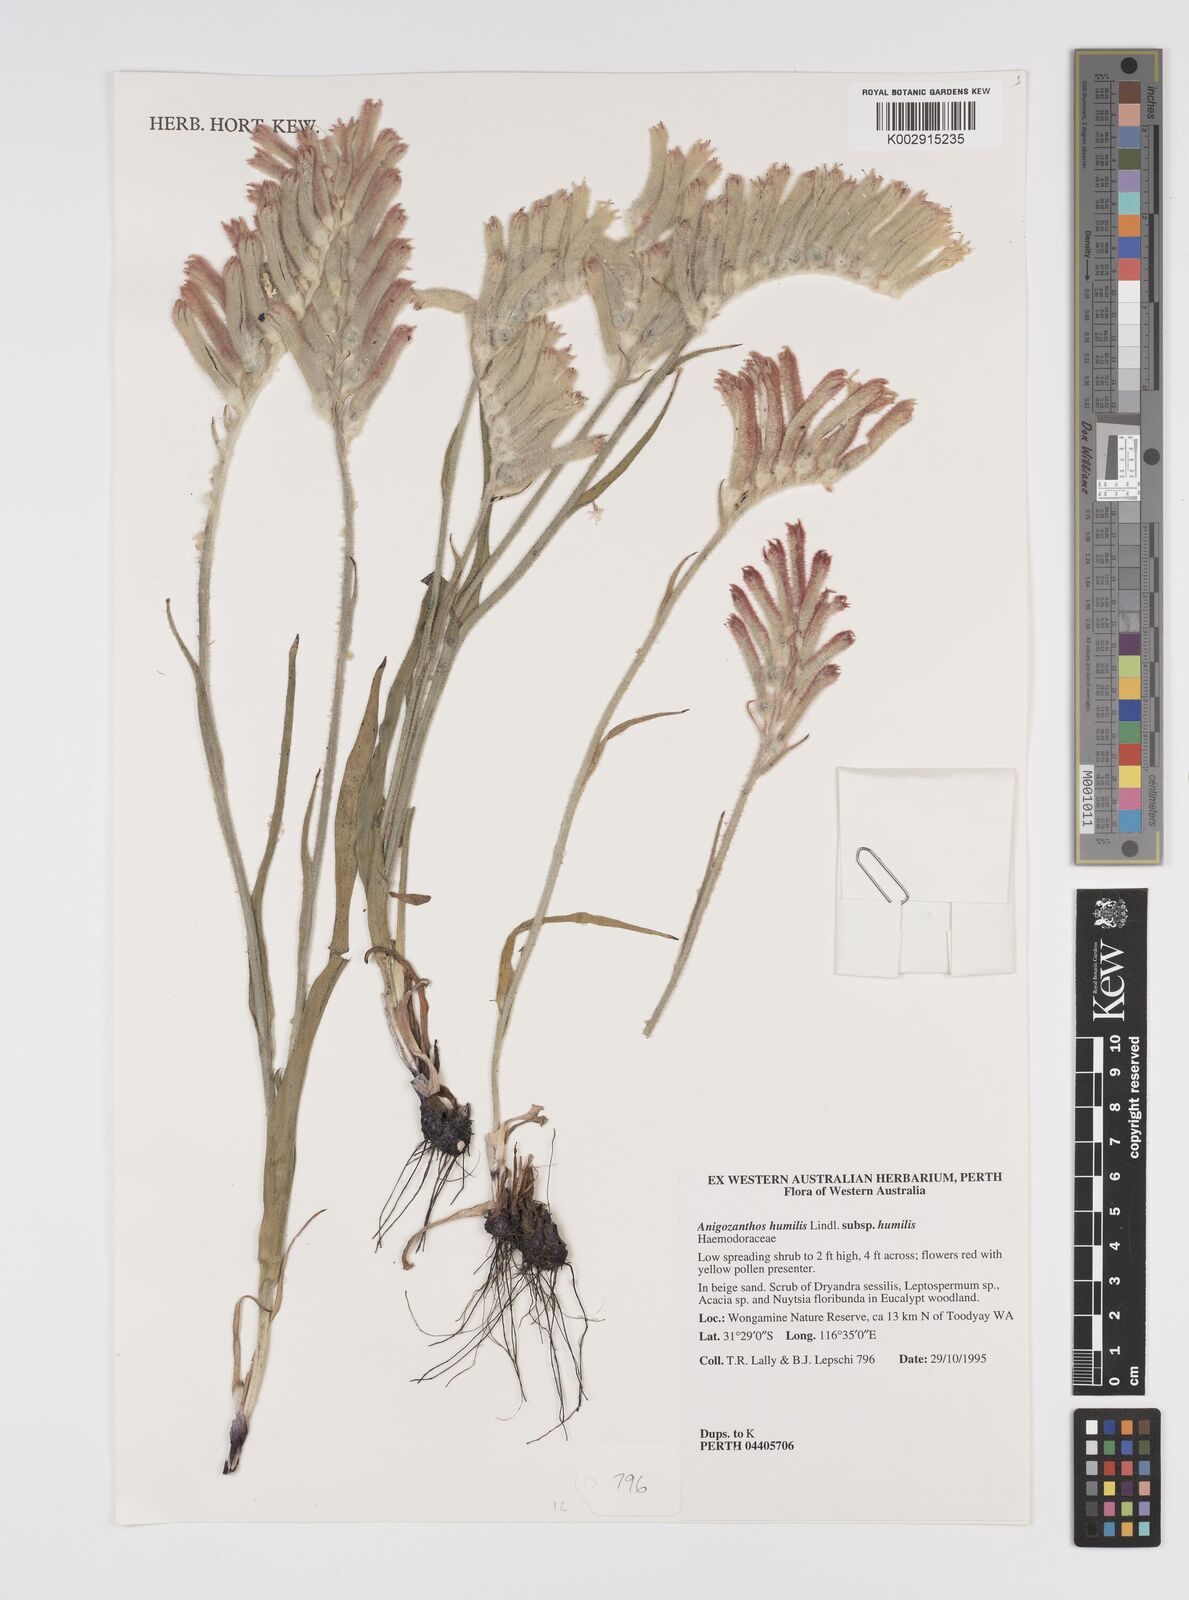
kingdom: Plantae
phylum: Tracheophyta
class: Liliopsida
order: Commelinales
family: Haemodoraceae
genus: Anigozanthos
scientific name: Anigozanthos humilis
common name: Cat's-paw
